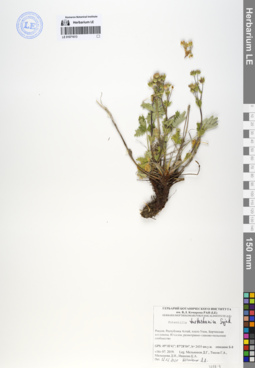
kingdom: Plantae
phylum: Tracheophyta
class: Magnoliopsida
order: Rosales
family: Rosaceae
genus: Potentilla
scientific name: Potentilla turkestanica
